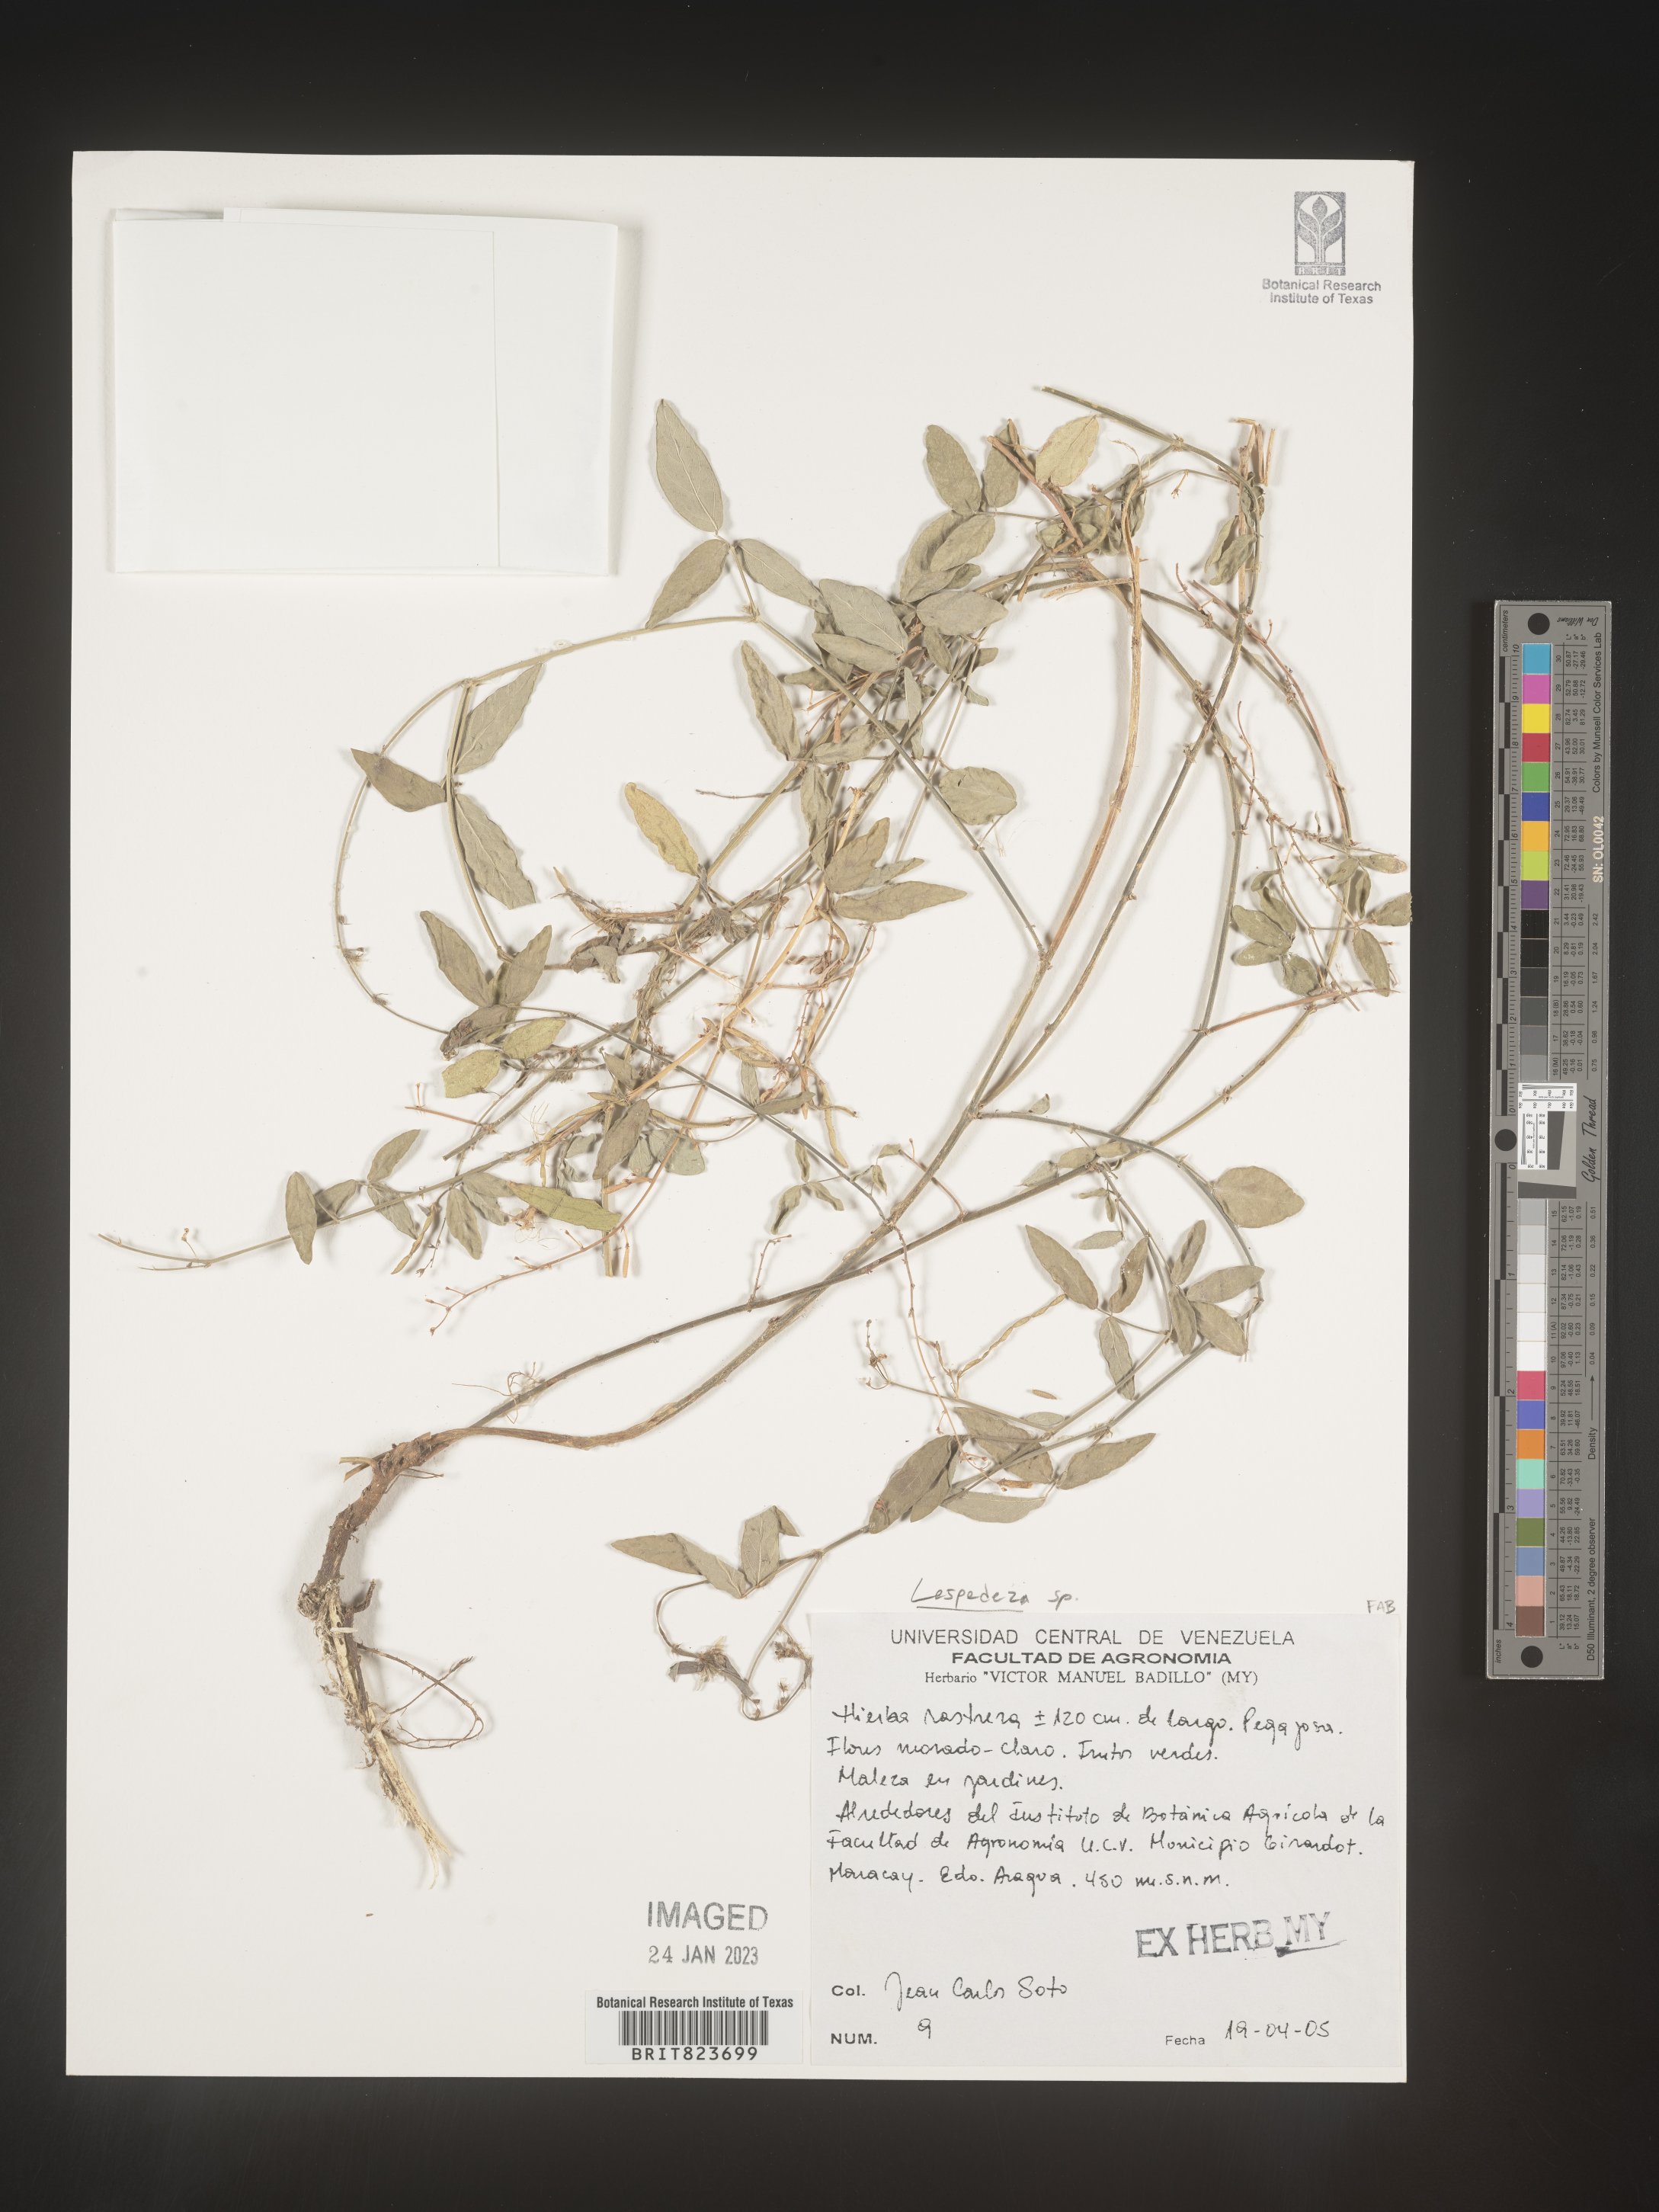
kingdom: Plantae
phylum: Tracheophyta
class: Magnoliopsida
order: Fabales
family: Fabaceae
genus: Lespedeza
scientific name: Lespedeza
